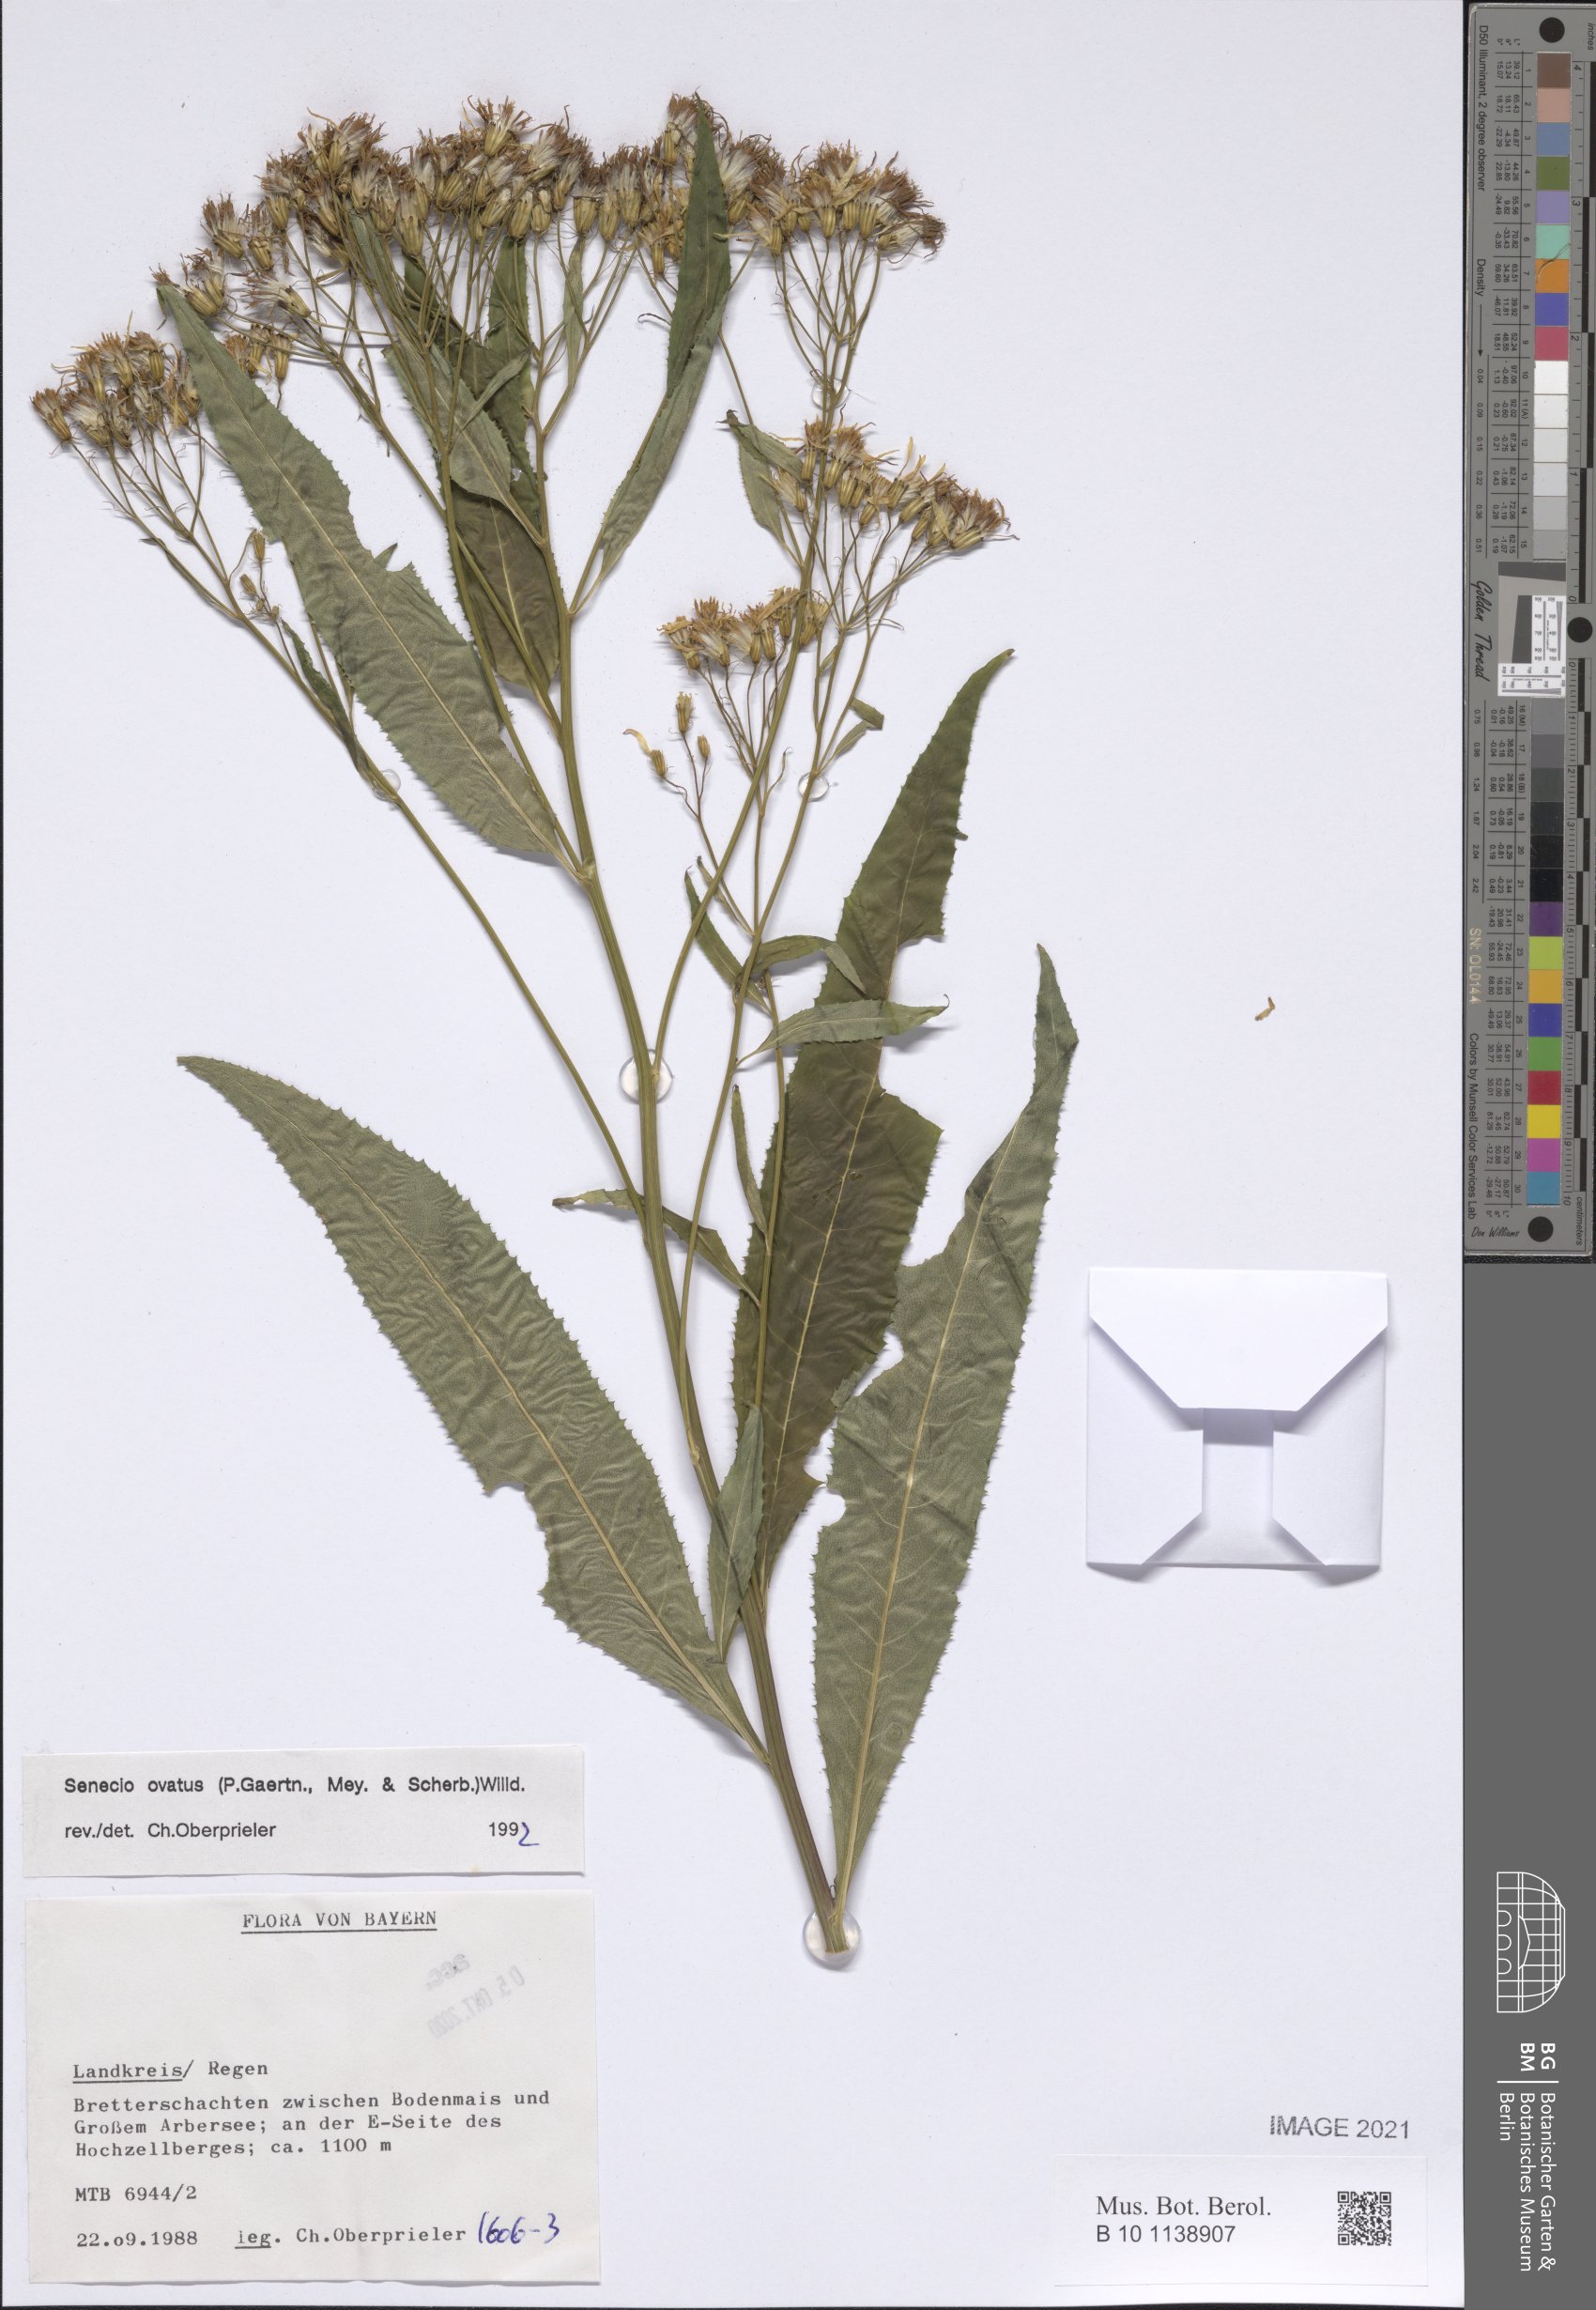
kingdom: Plantae
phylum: Tracheophyta
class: Magnoliopsida
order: Asterales
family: Asteraceae
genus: Senecio
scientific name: Senecio ovatus
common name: Wood ragwort
